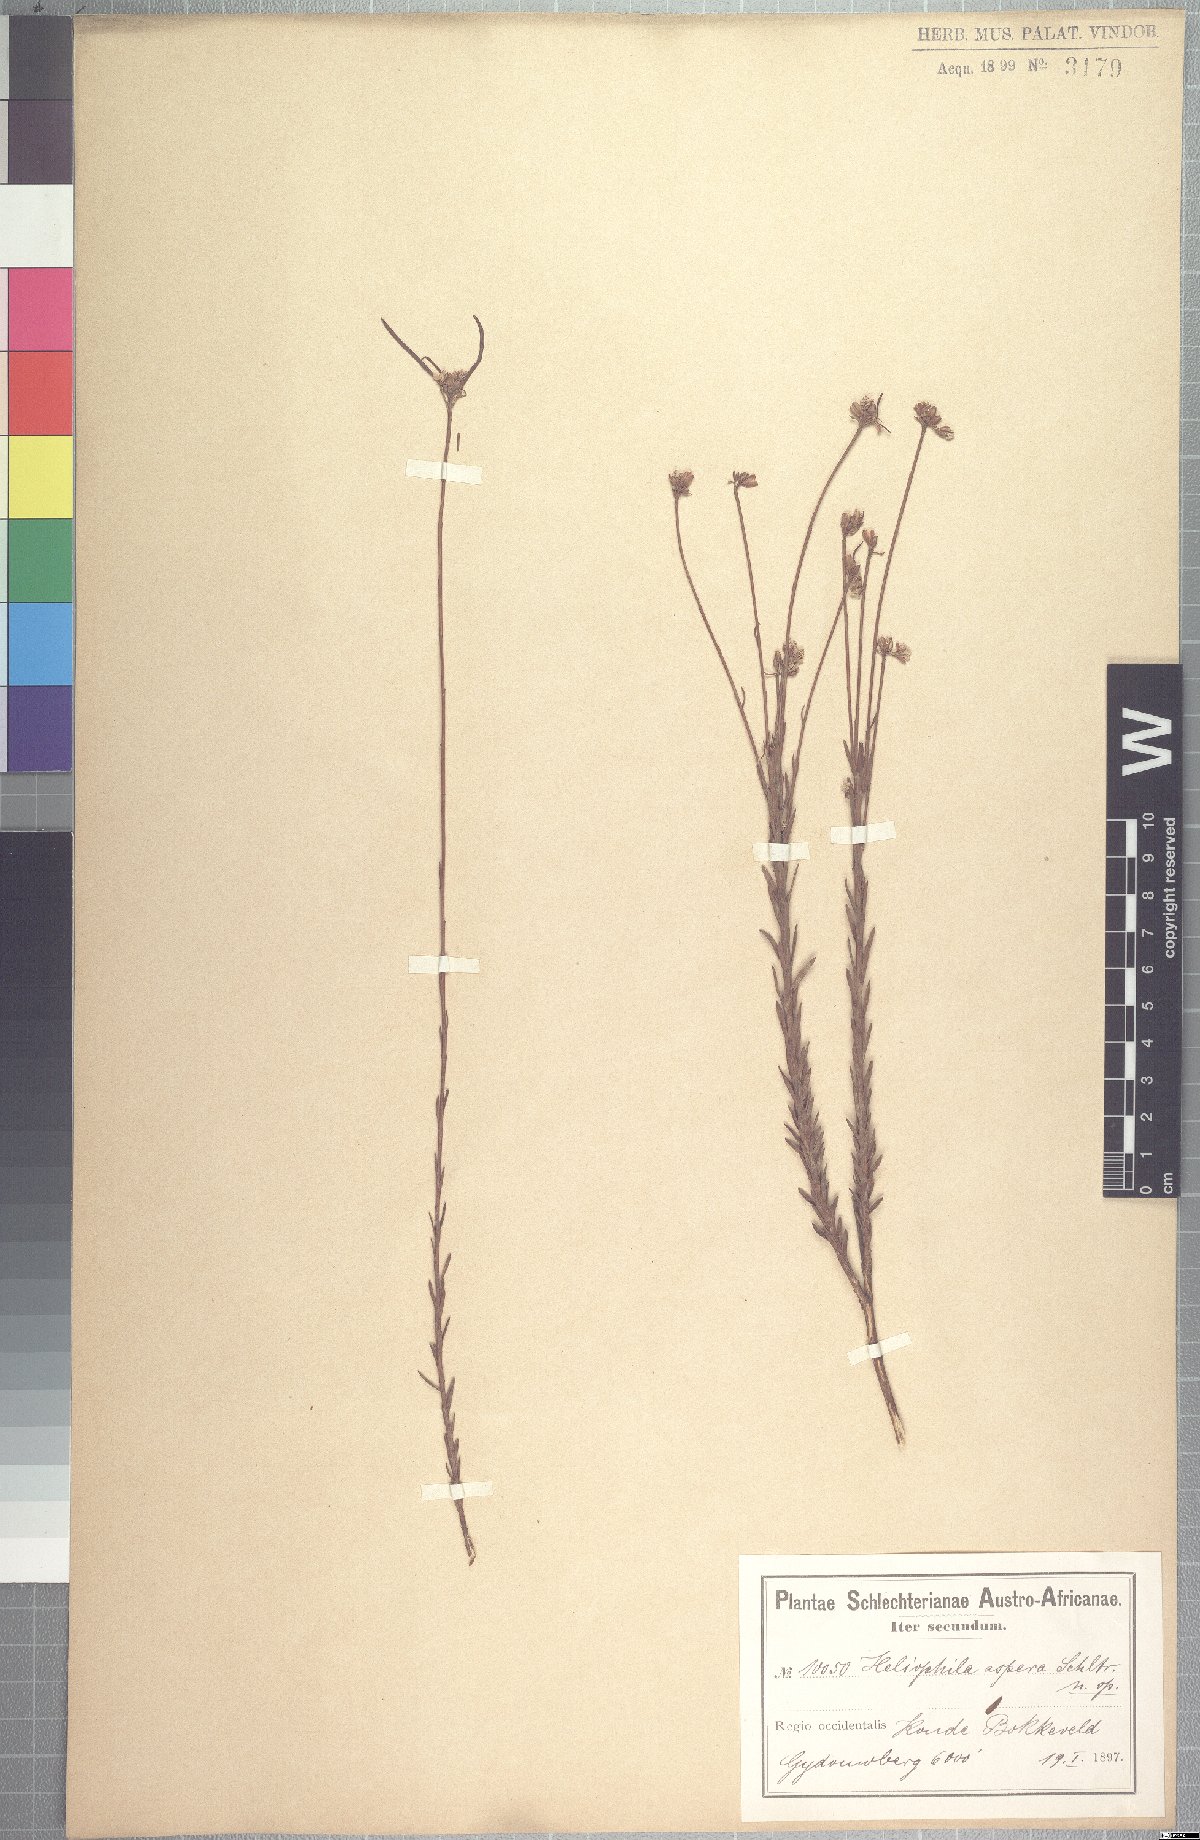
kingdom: Plantae
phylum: Tracheophyta
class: Magnoliopsida
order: Brassicales
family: Brassicaceae
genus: Heliophila
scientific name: Heliophila scoparia
